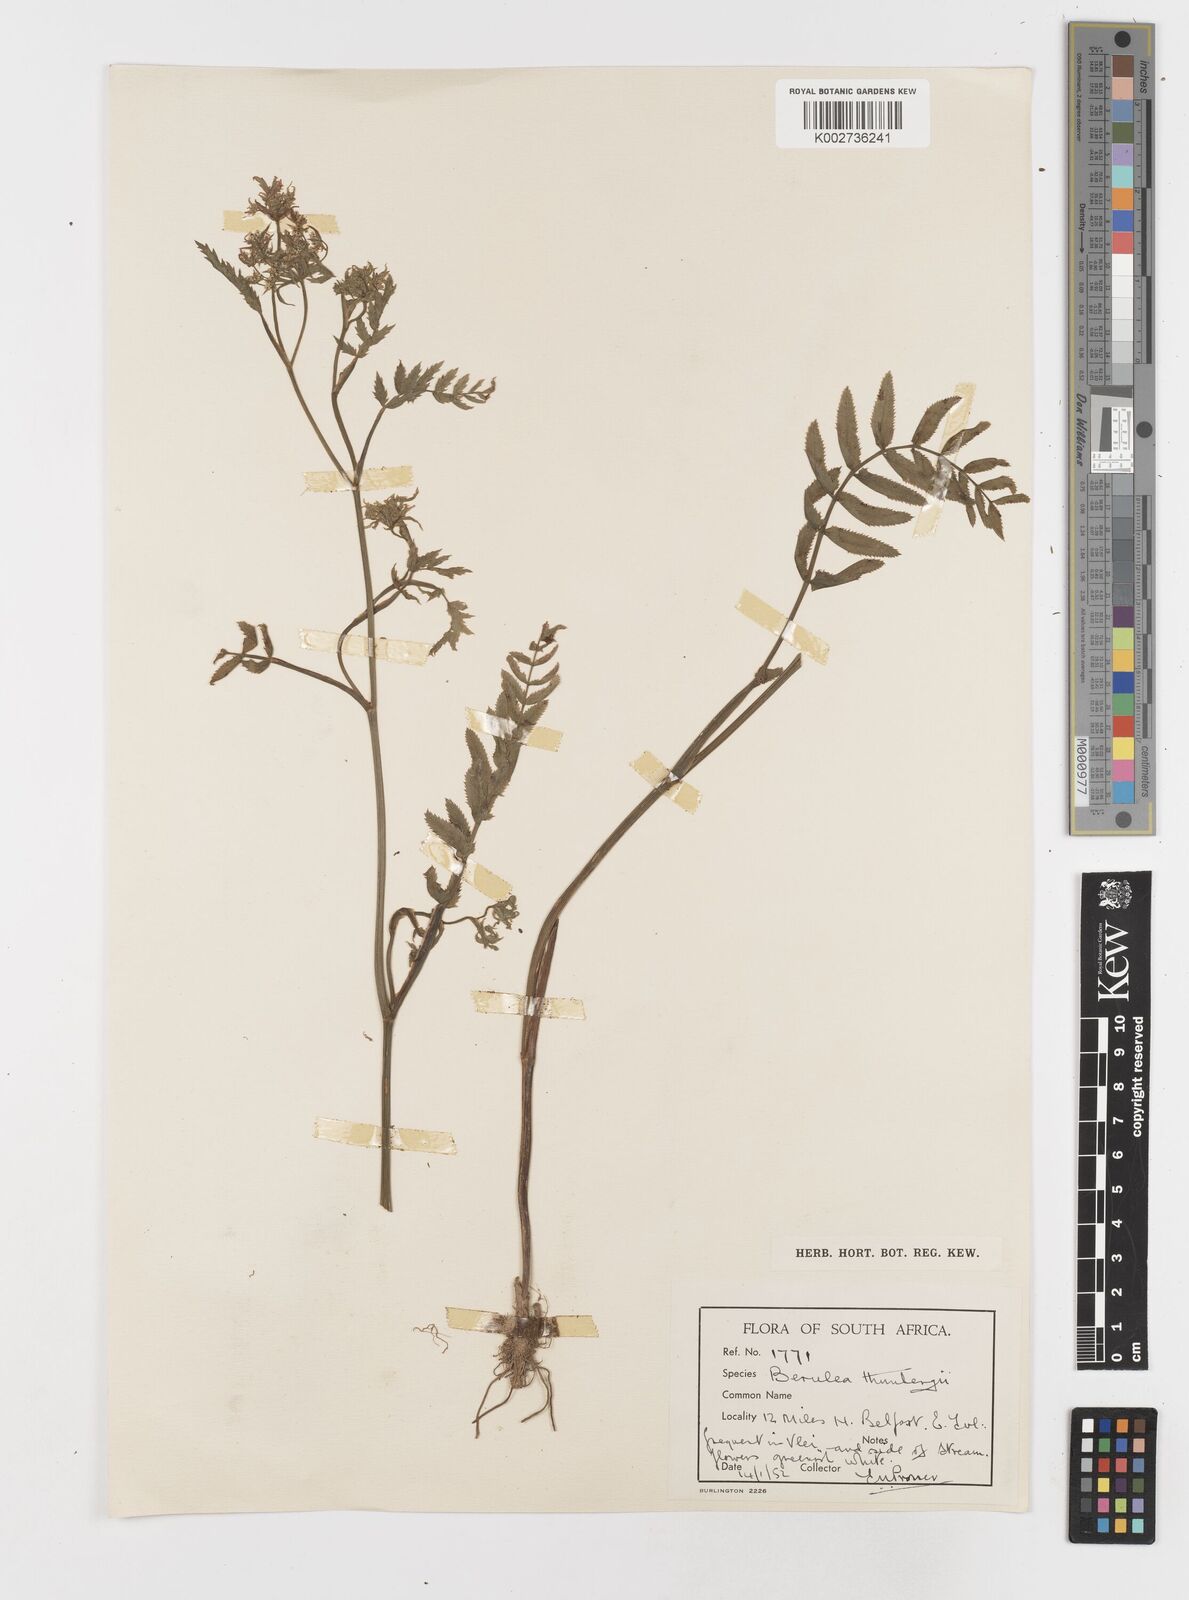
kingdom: Plantae
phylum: Tracheophyta
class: Magnoliopsida
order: Apiales
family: Apiaceae
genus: Berula
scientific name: Berula erecta
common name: Lesser water-parsnip
